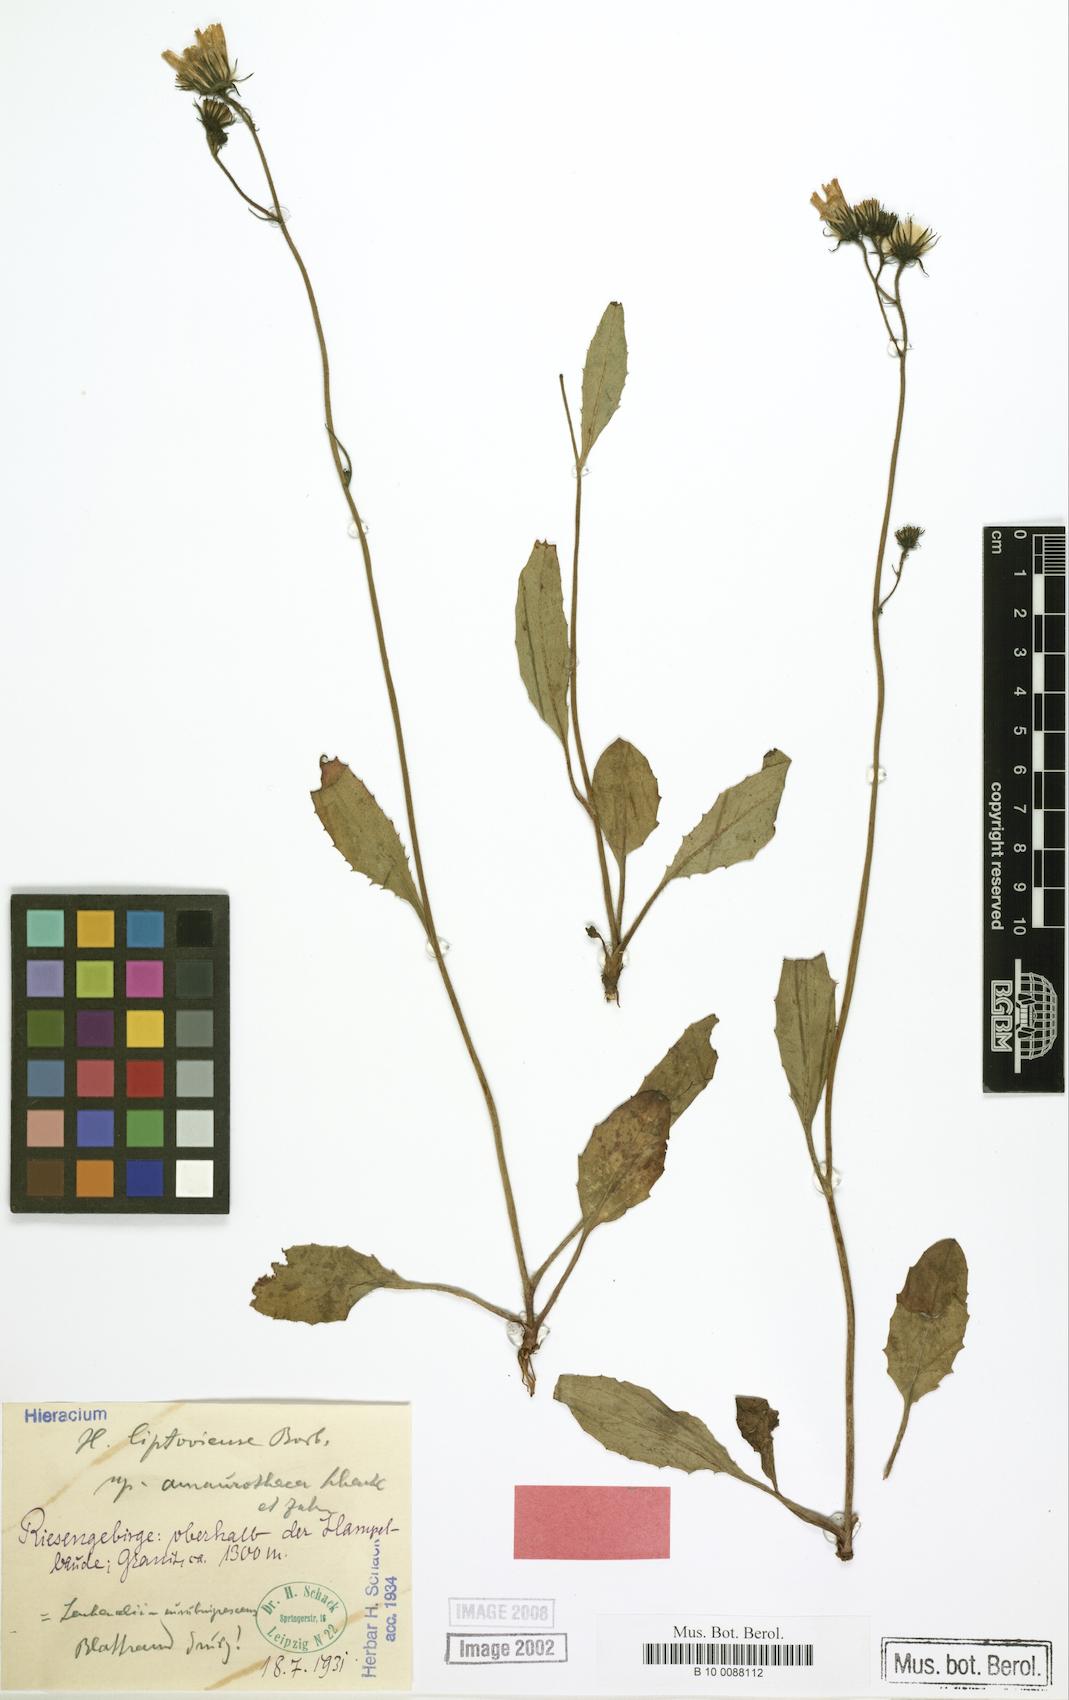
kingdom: Plantae
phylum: Tracheophyta
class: Magnoliopsida
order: Asterales
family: Asteraceae
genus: Hieracium
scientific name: Hieracium liptoviense
